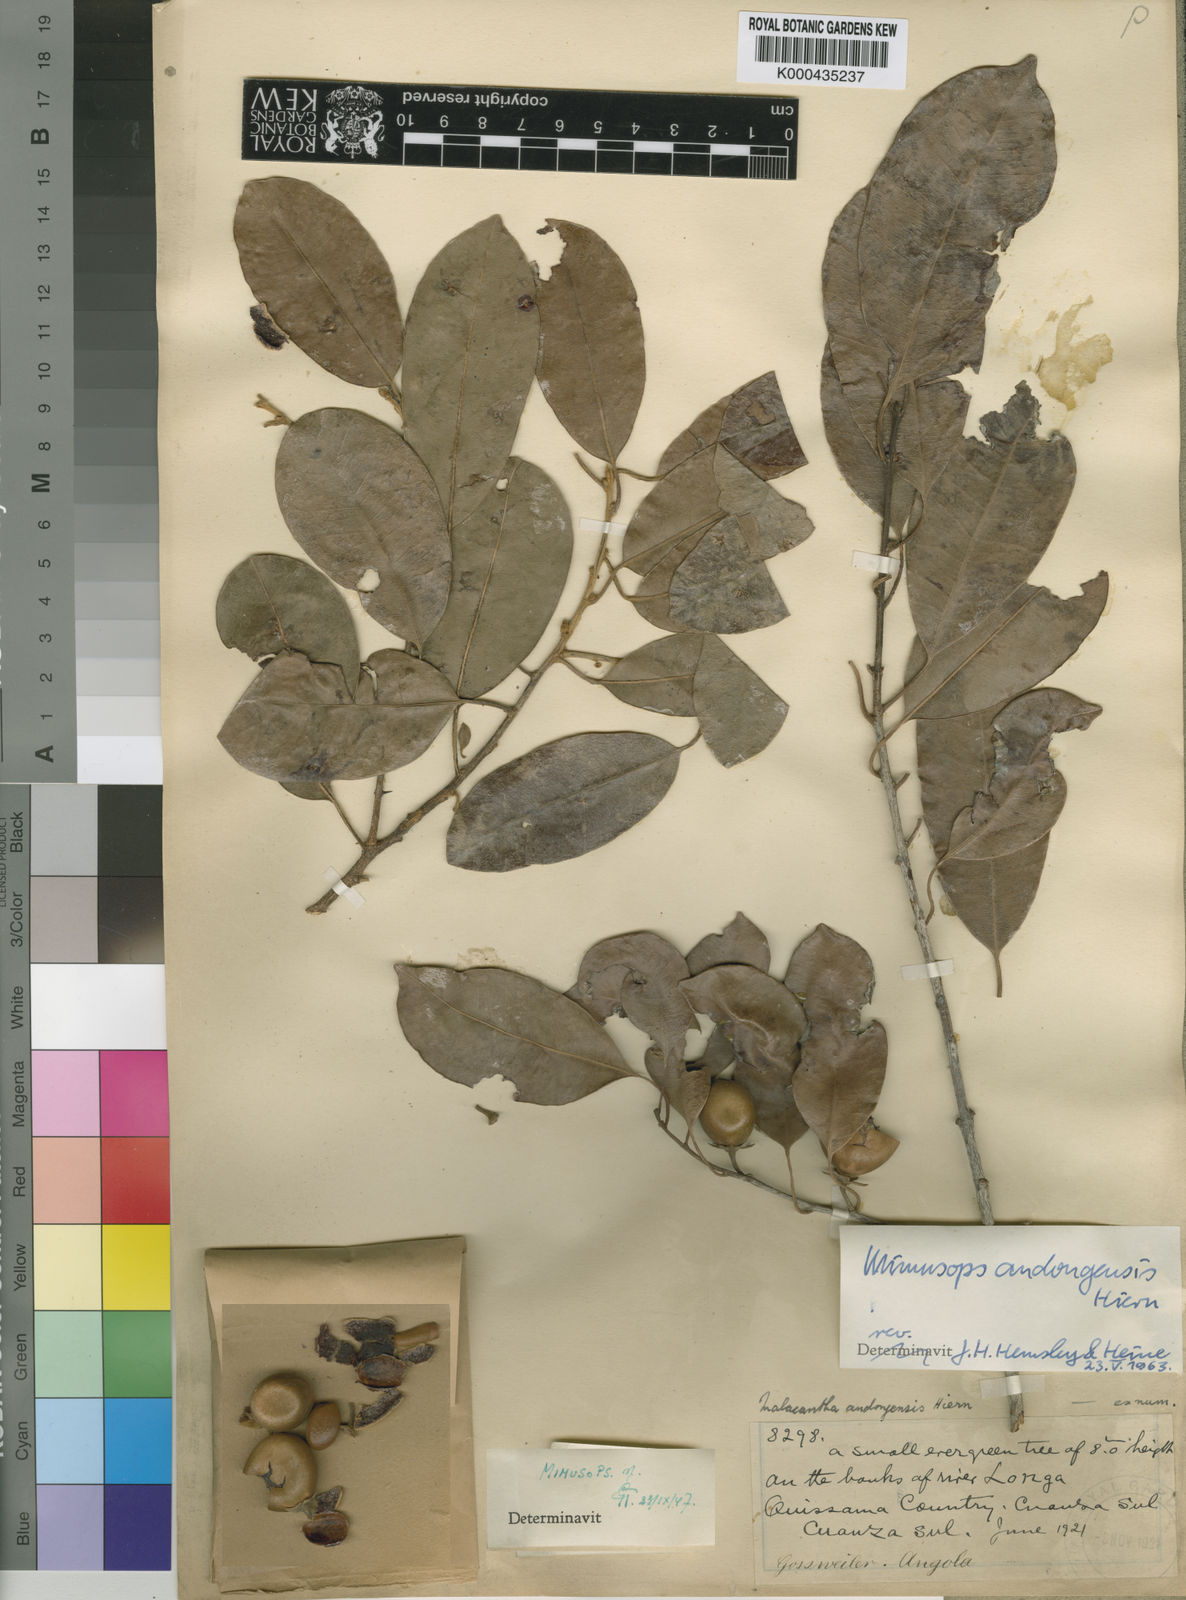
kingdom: Plantae
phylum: Tracheophyta
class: Magnoliopsida
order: Ericales
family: Sapotaceae
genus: Mimusops
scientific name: Mimusops andongensis
